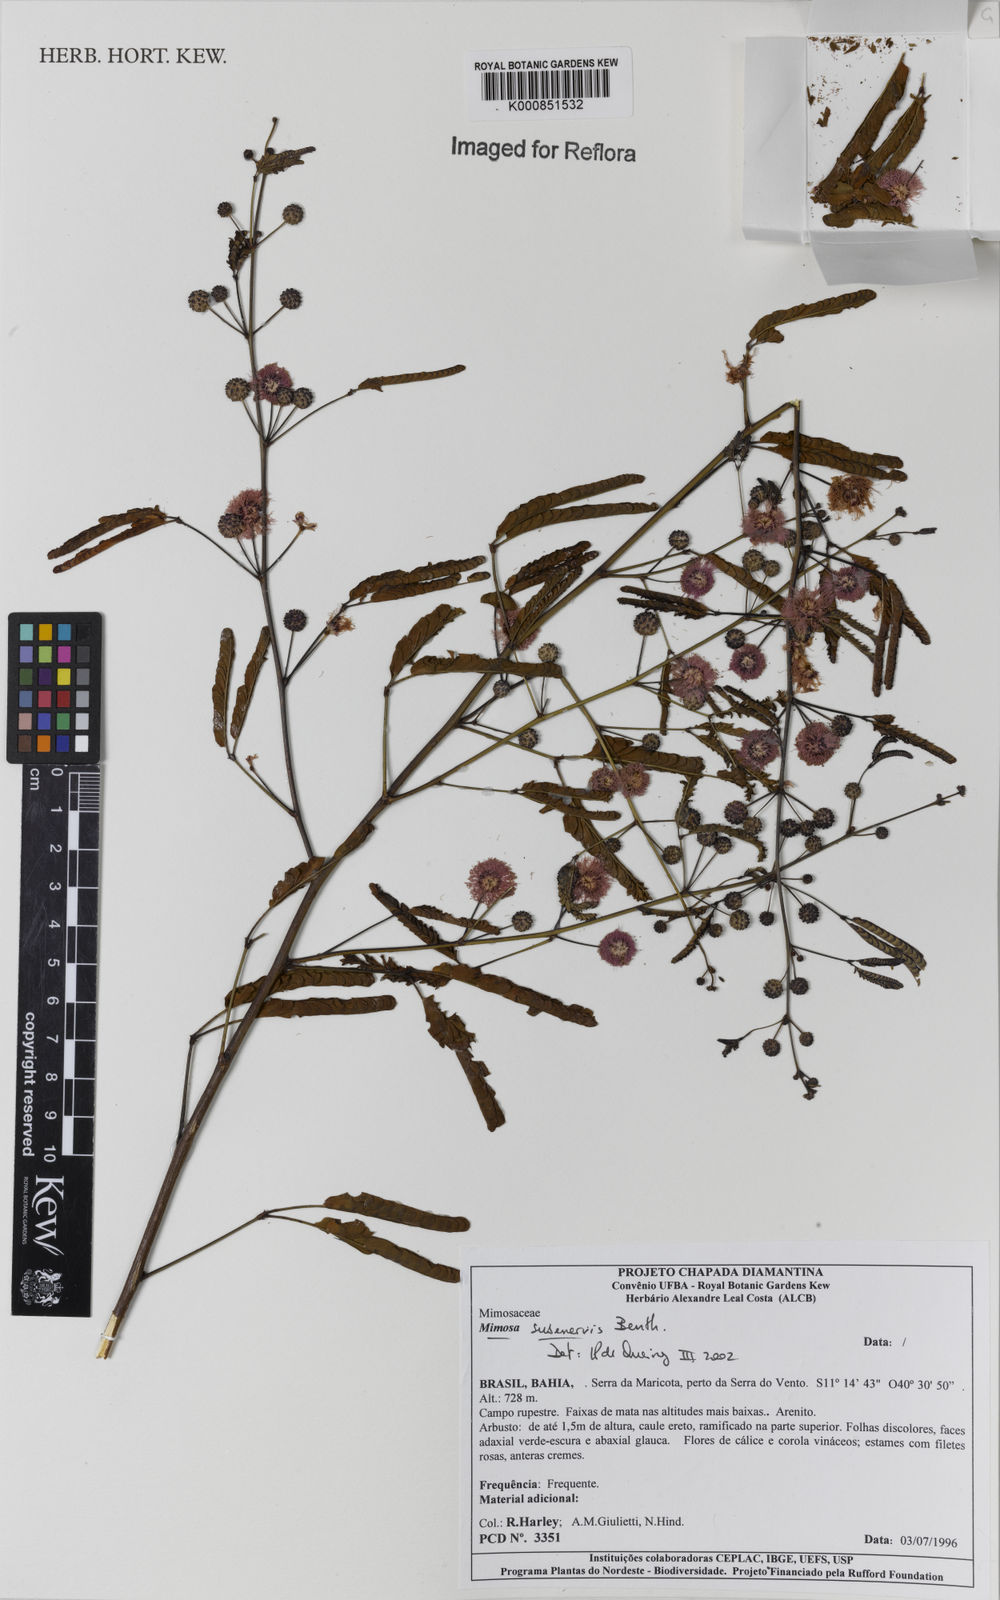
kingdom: Plantae
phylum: Tracheophyta
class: Magnoliopsida
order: Fabales
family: Fabaceae
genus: Mimosa
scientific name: Mimosa subenervis
